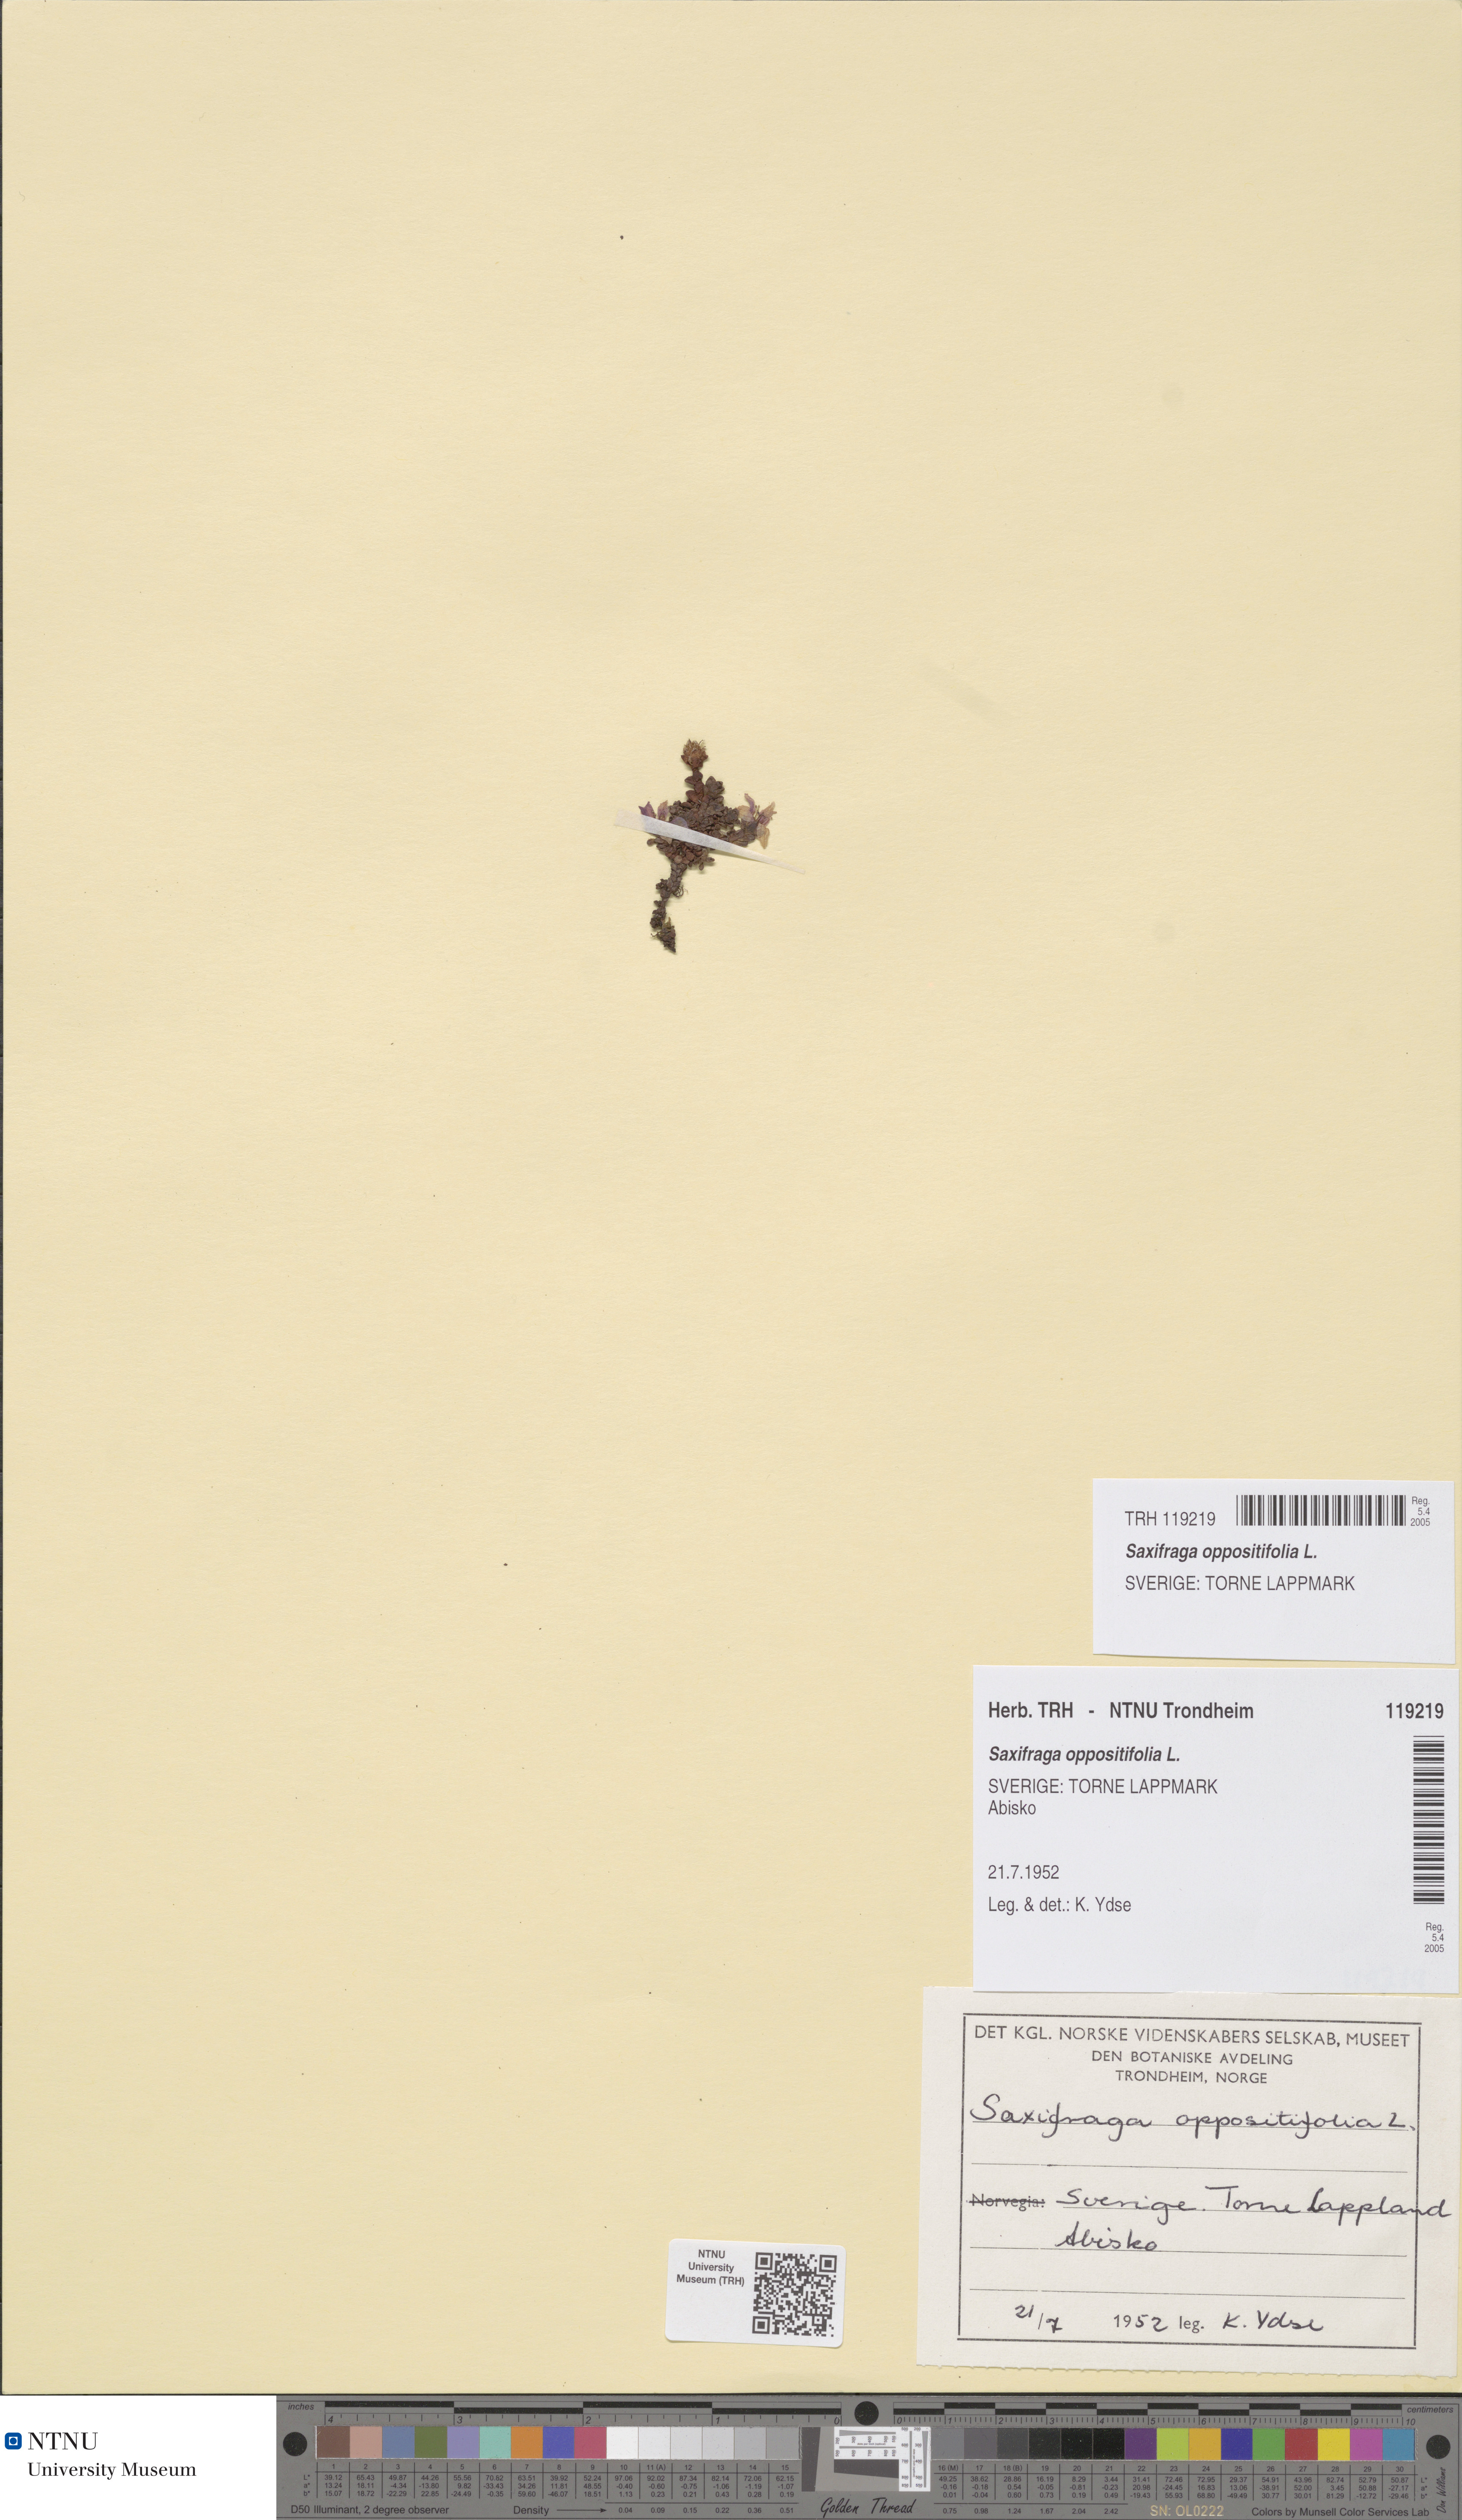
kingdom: Plantae
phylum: Tracheophyta
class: Magnoliopsida
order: Saxifragales
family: Saxifragaceae
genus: Saxifraga
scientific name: Saxifraga oppositifolia
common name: Purple saxifrage
